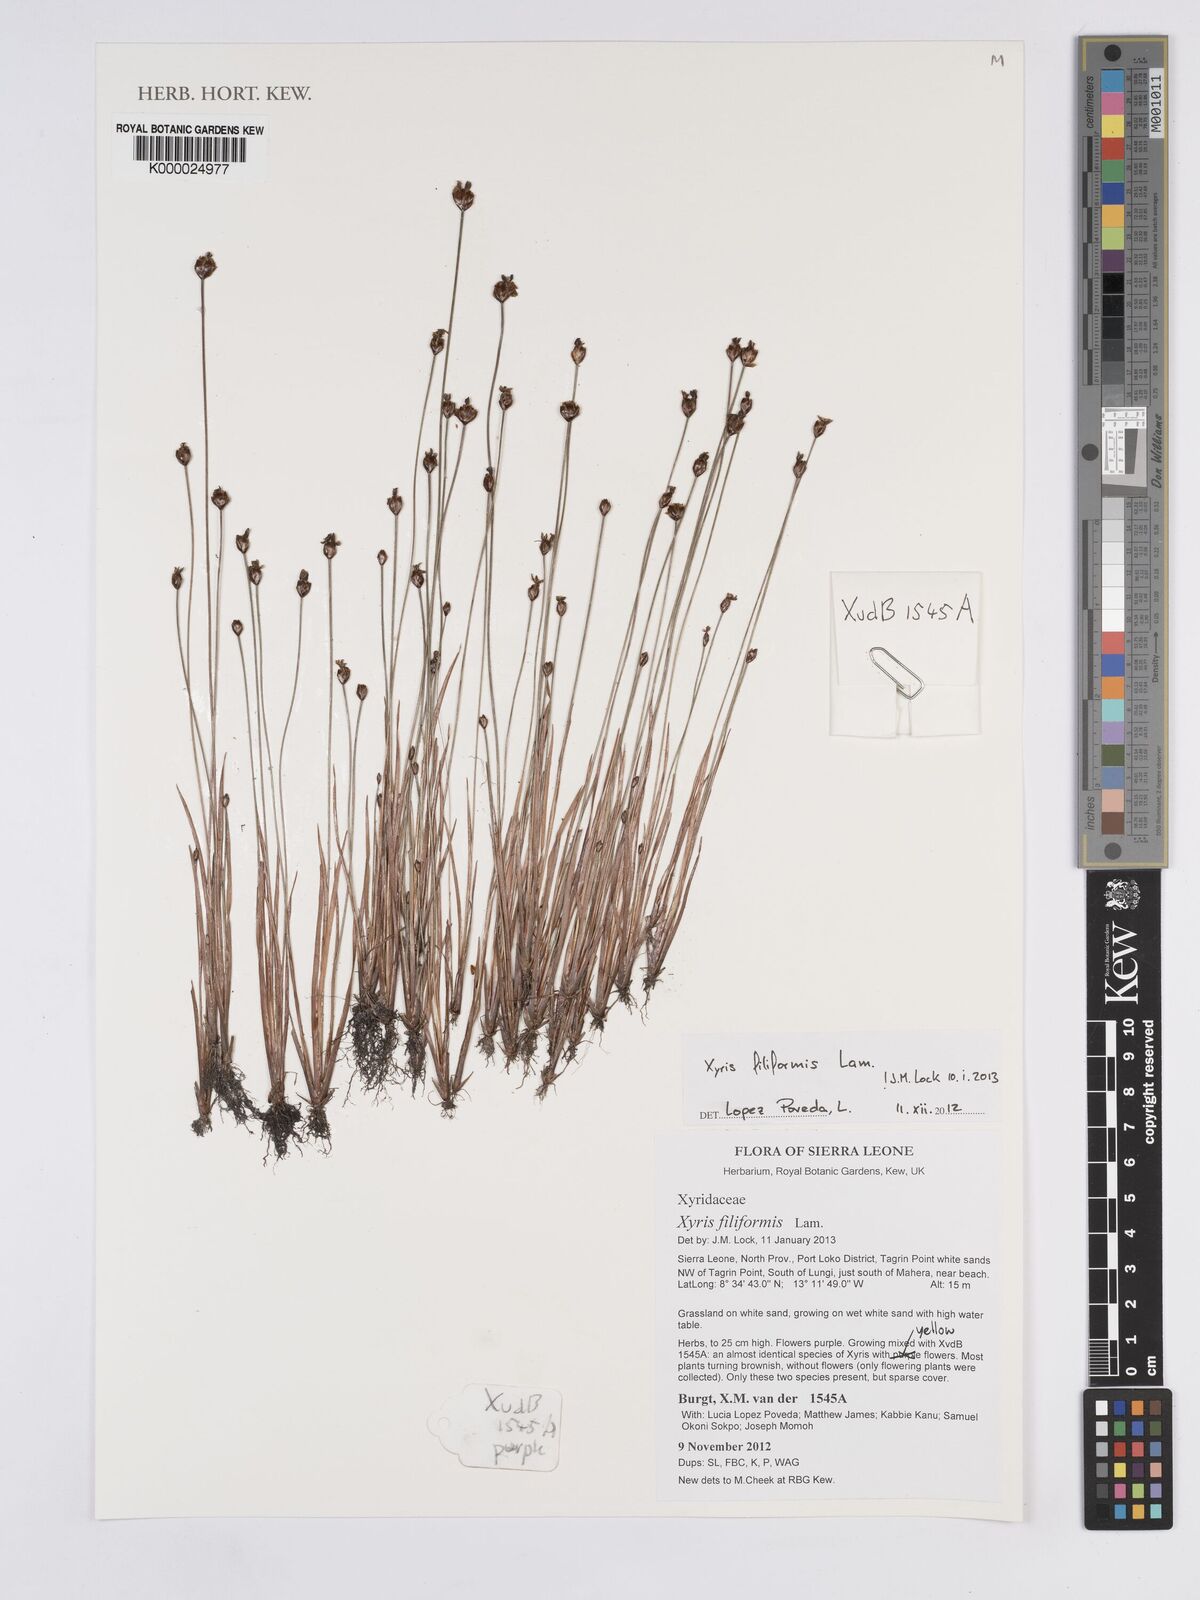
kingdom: Plantae
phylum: Tracheophyta
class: Liliopsida
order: Poales
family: Xyridaceae
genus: Xyris
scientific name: Xyris filiformis
